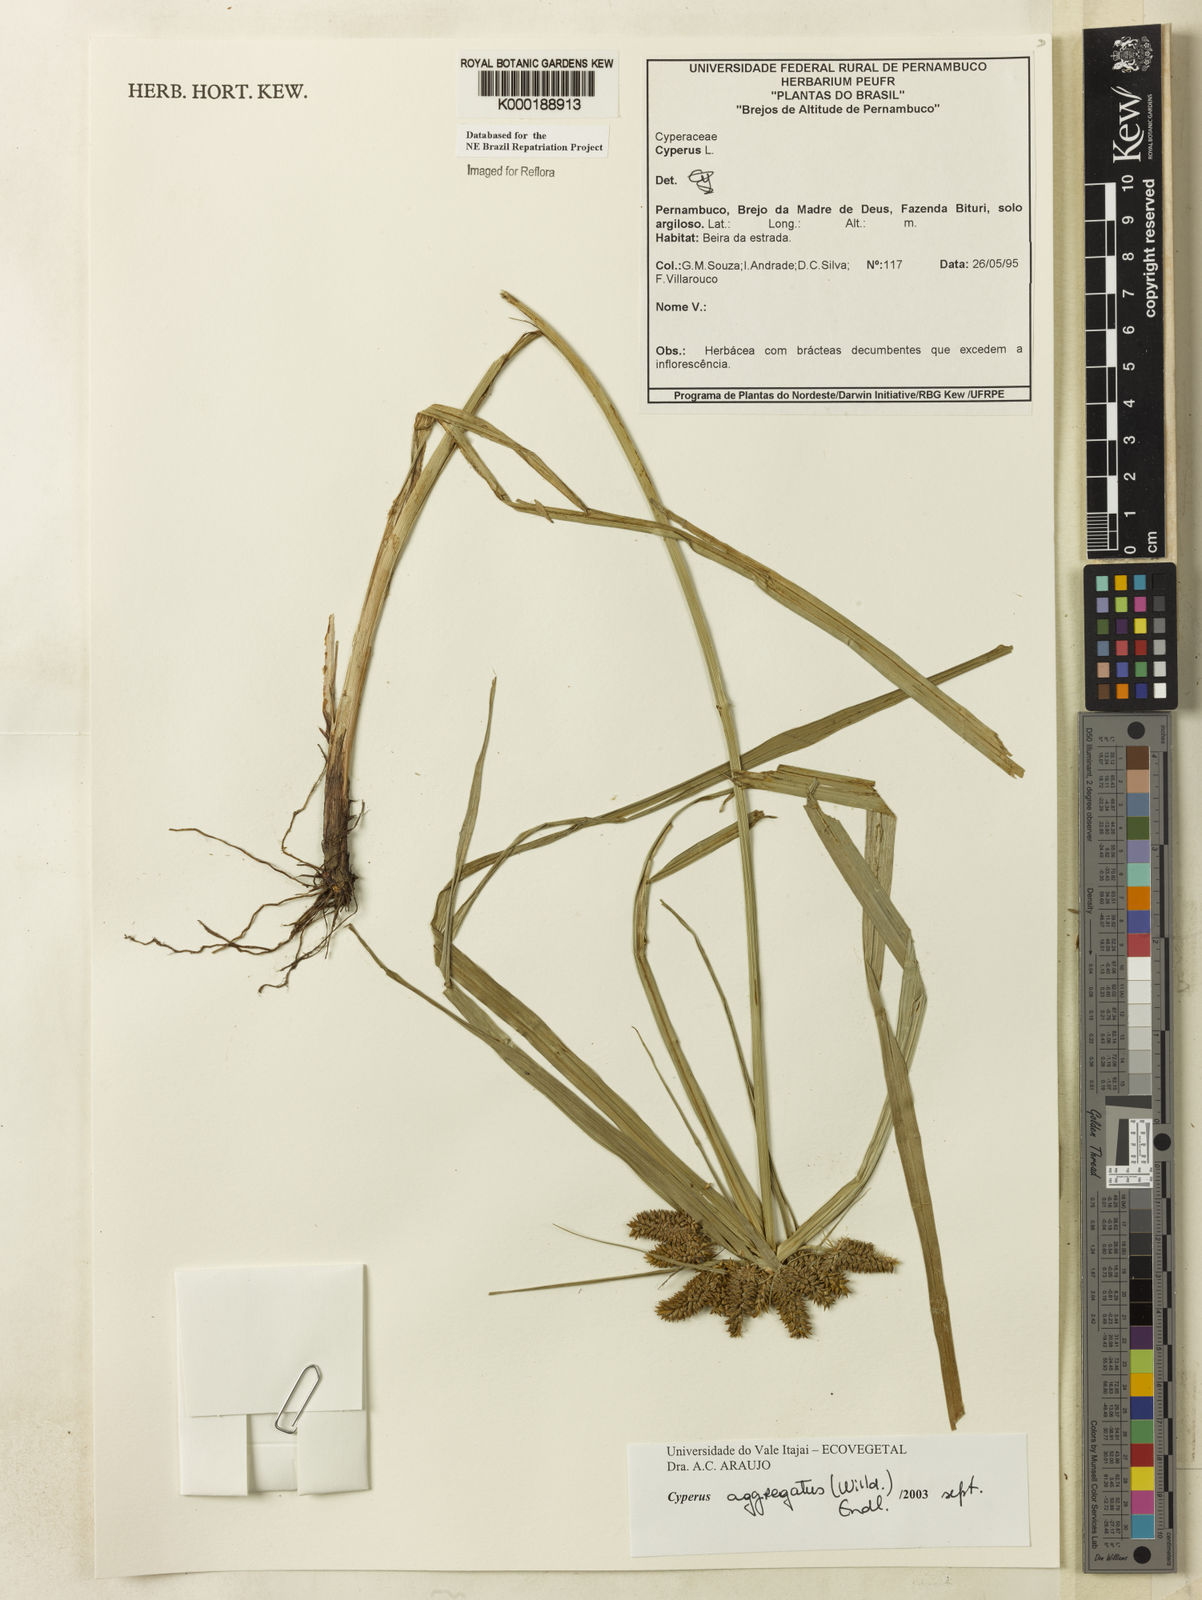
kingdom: Plantae
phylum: Tracheophyta
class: Liliopsida
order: Poales
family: Cyperaceae
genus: Cyperus
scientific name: Cyperus aggregatus
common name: Inflatedscale flatsedge
